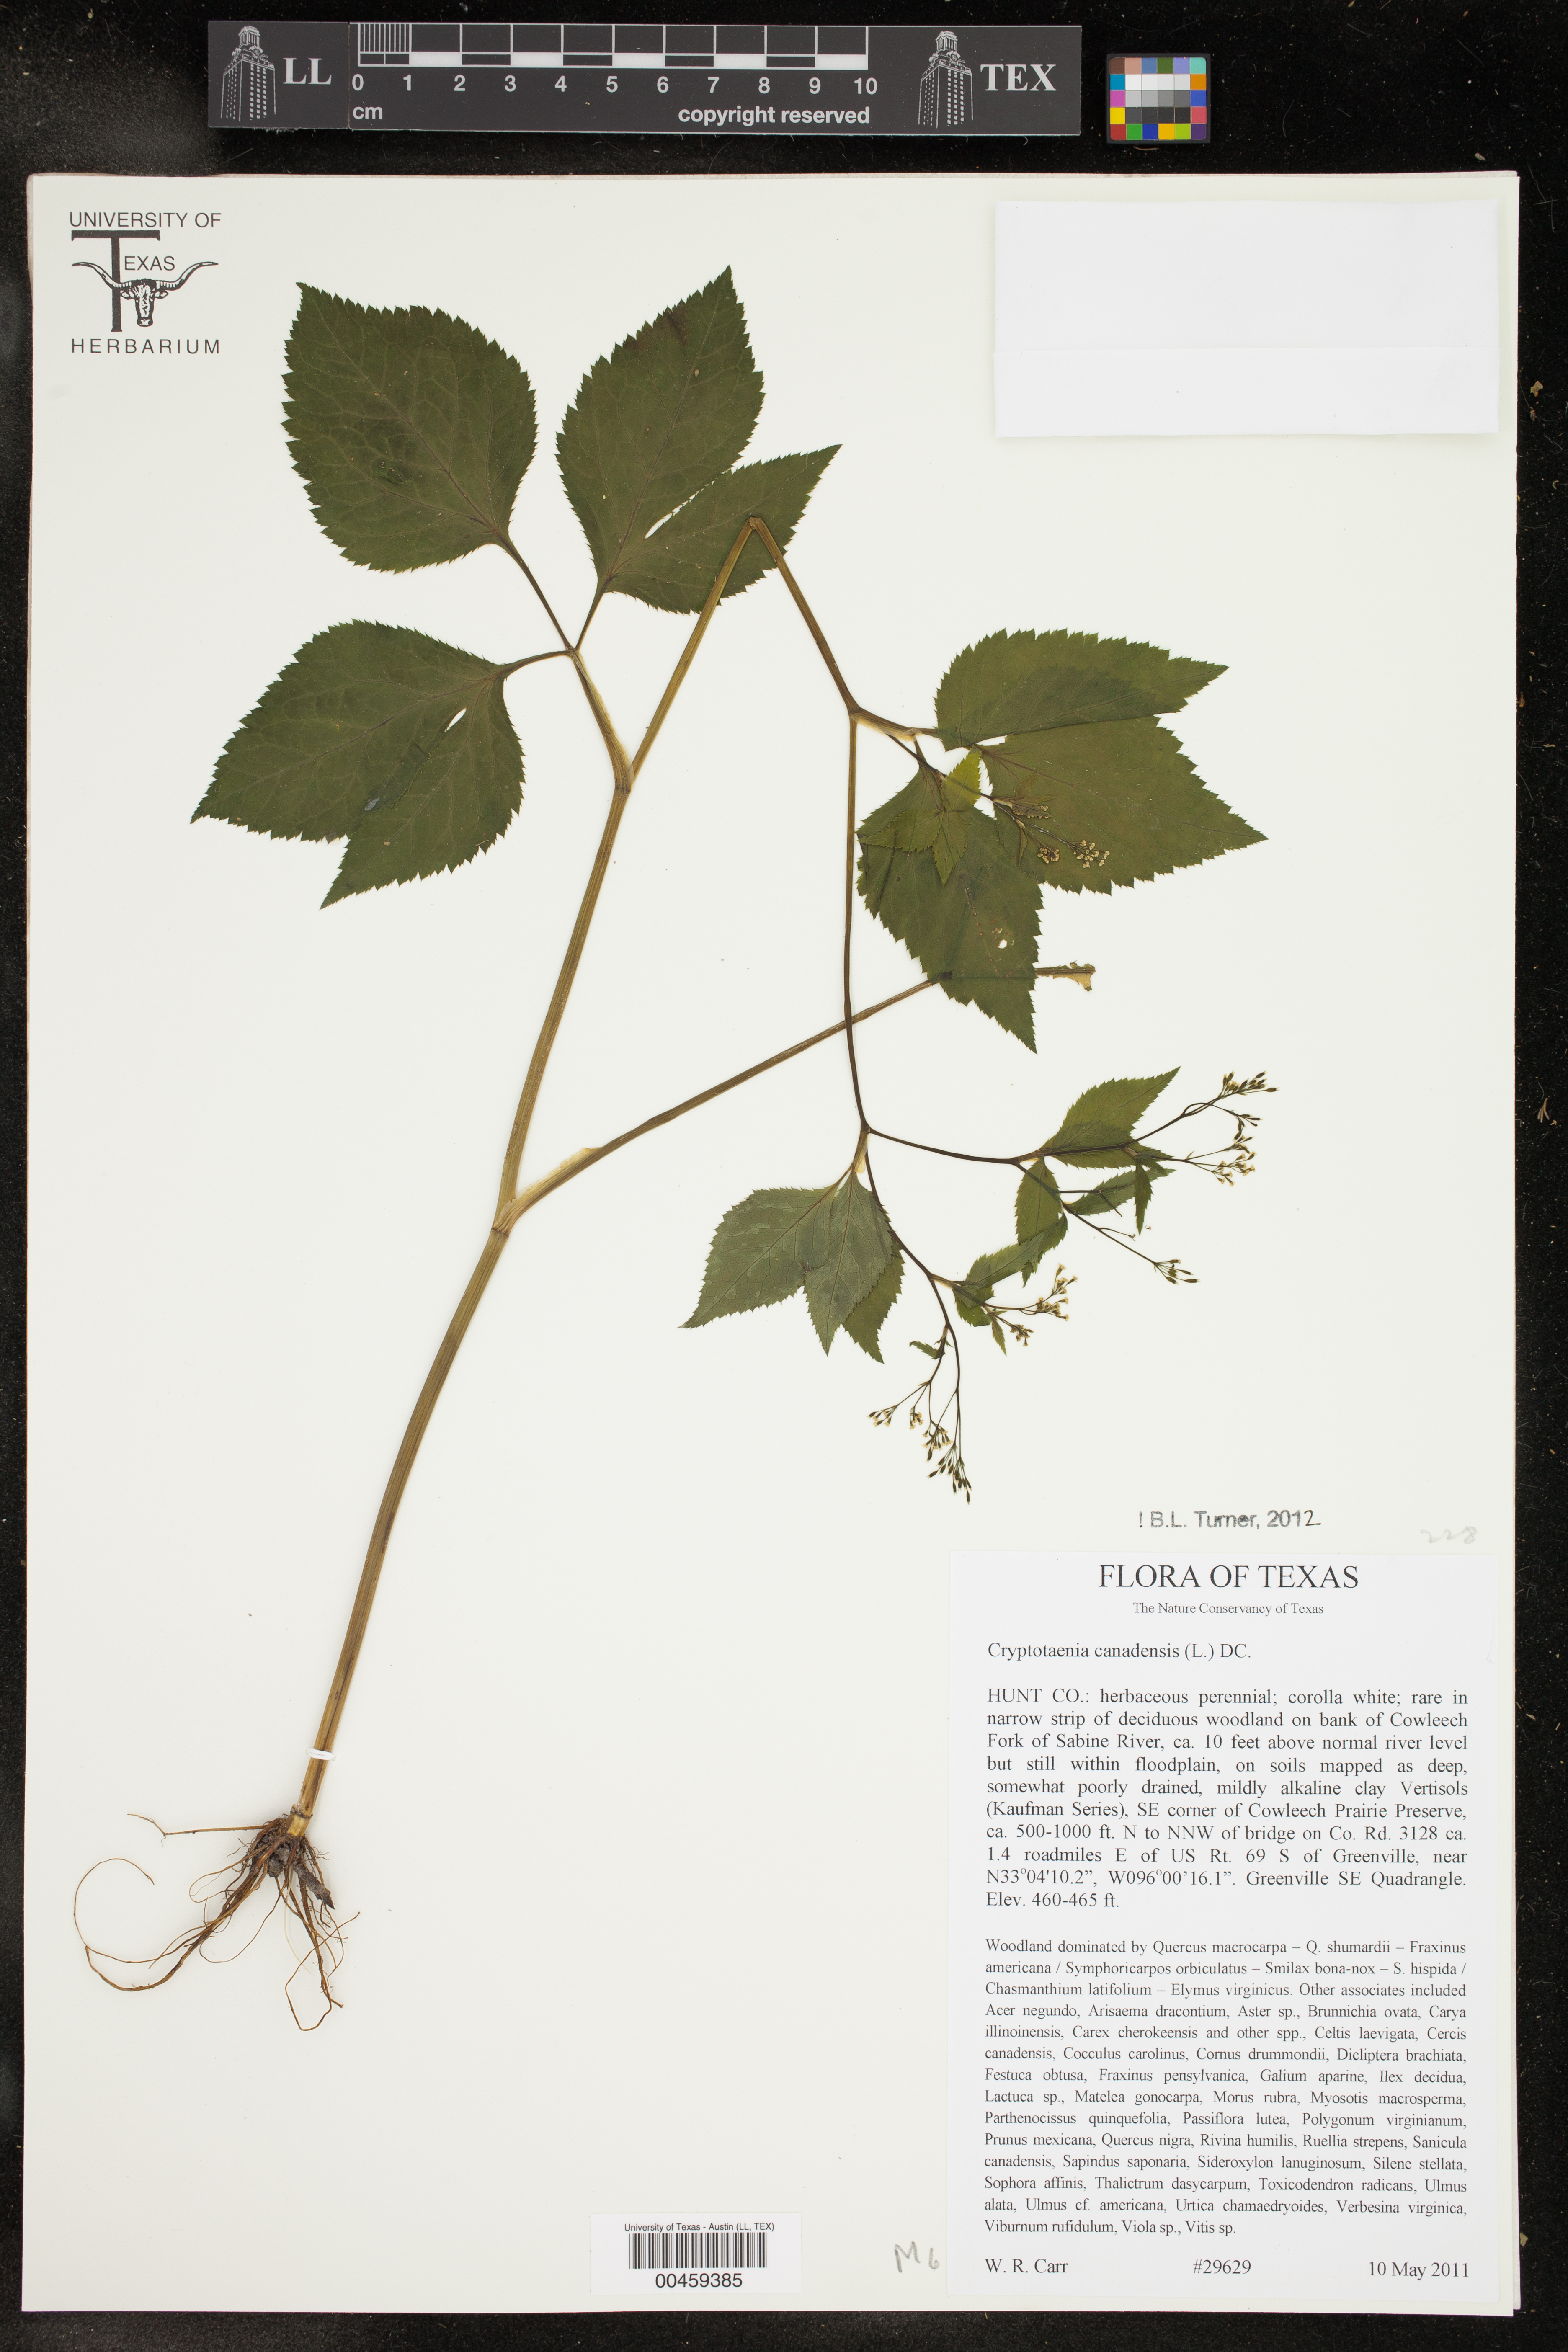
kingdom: Plantae
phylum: Tracheophyta
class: Magnoliopsida
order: Apiales
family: Apiaceae
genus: Cryptotaenia
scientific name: Cryptotaenia canadensis
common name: Honewort
